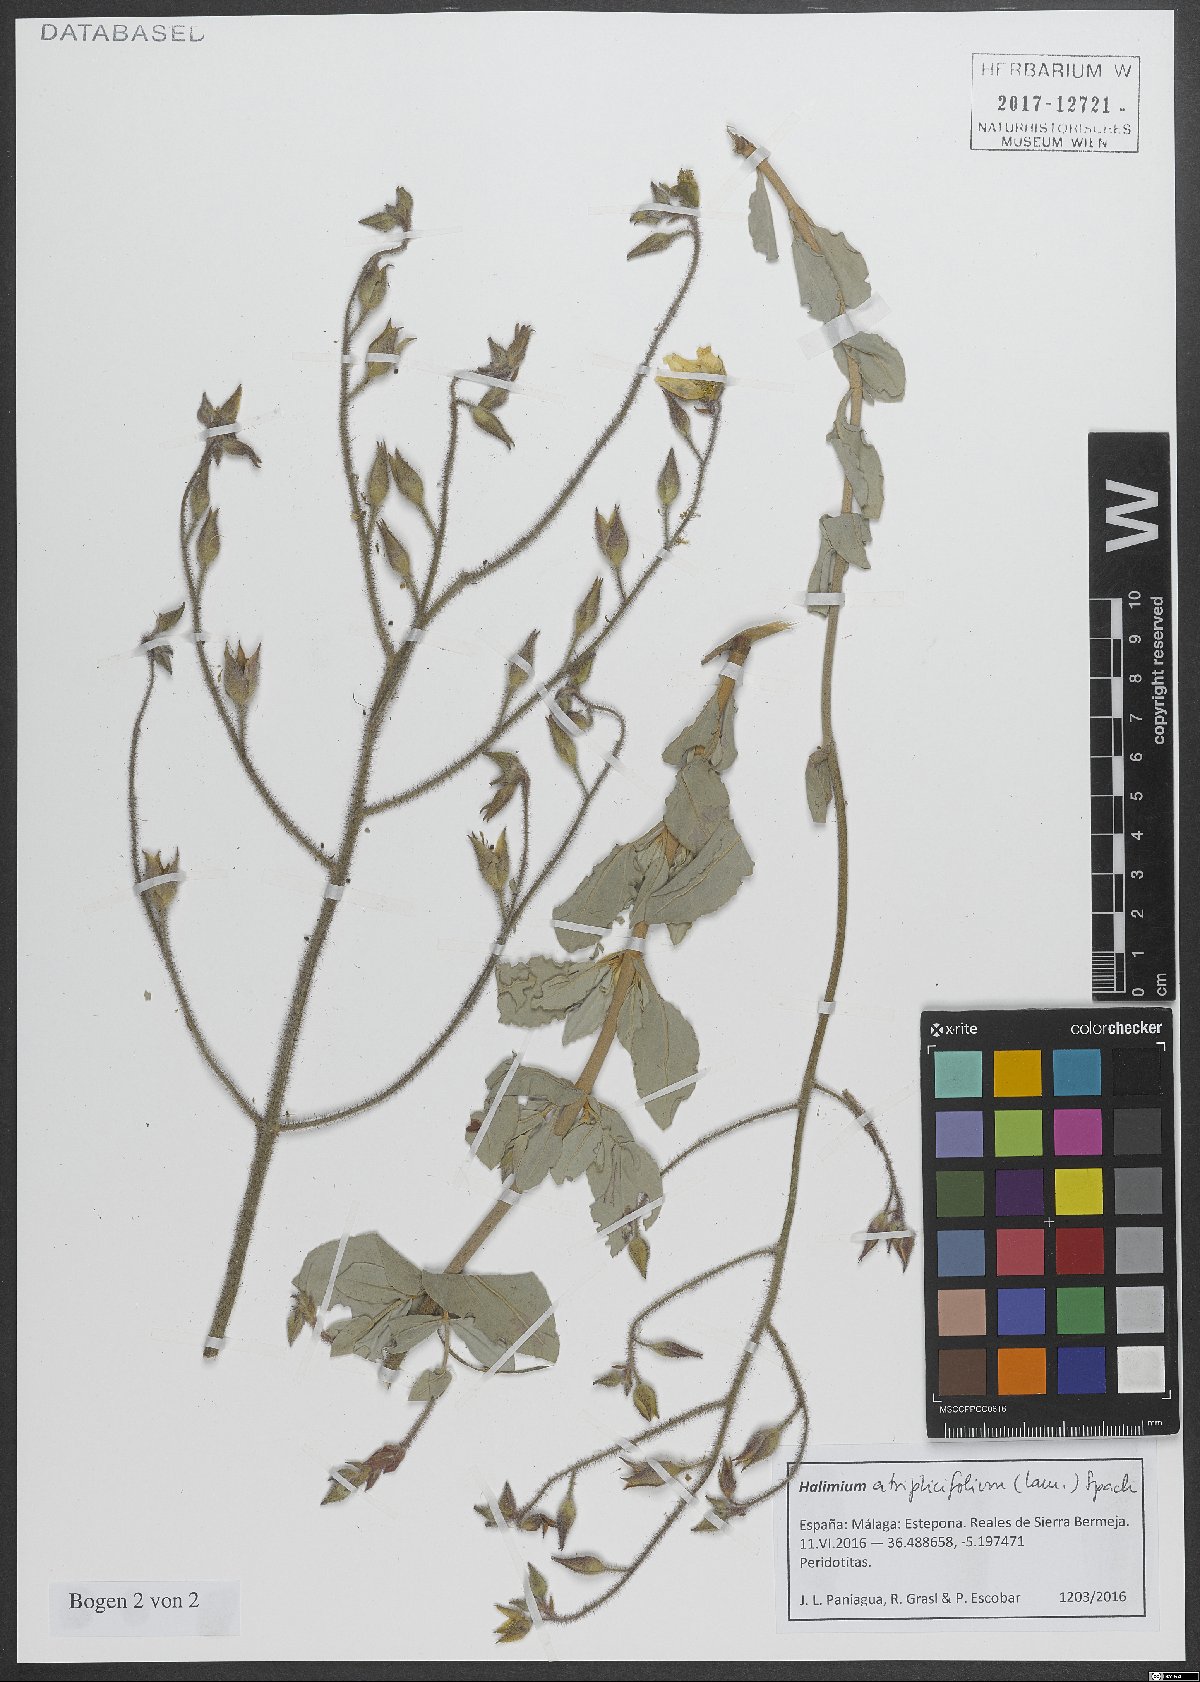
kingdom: Plantae
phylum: Tracheophyta
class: Magnoliopsida
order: Malvales
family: Cistaceae
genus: Halimium
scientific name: Halimium atriplicifolium
